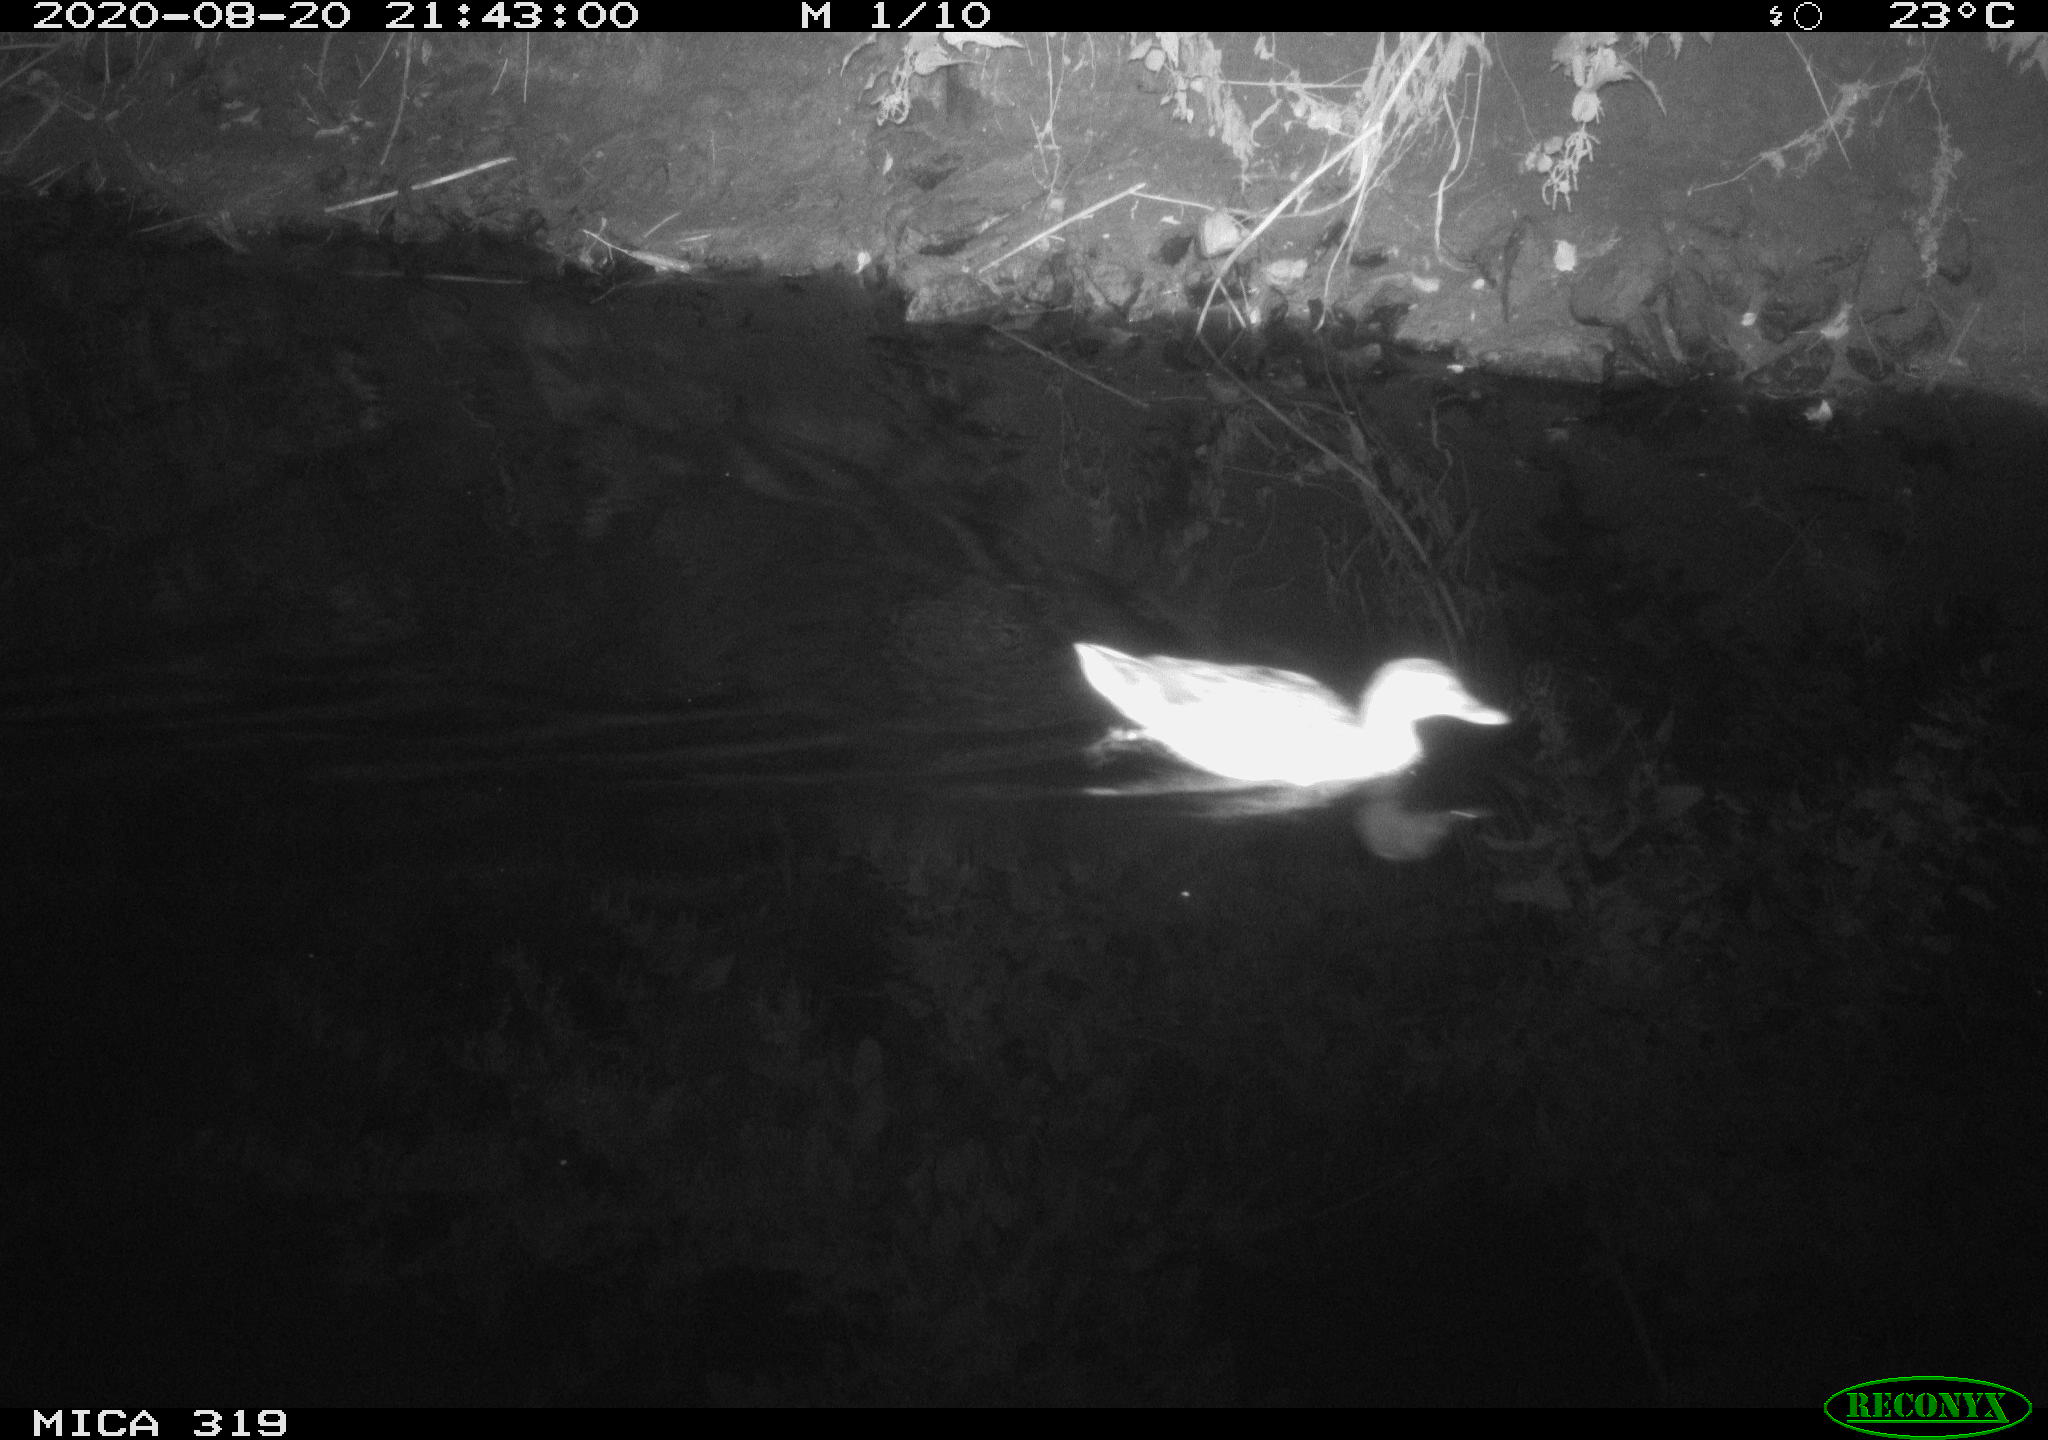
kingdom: Animalia
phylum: Chordata
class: Aves
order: Anseriformes
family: Anatidae
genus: Anas
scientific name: Anas platyrhynchos
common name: Mallard
